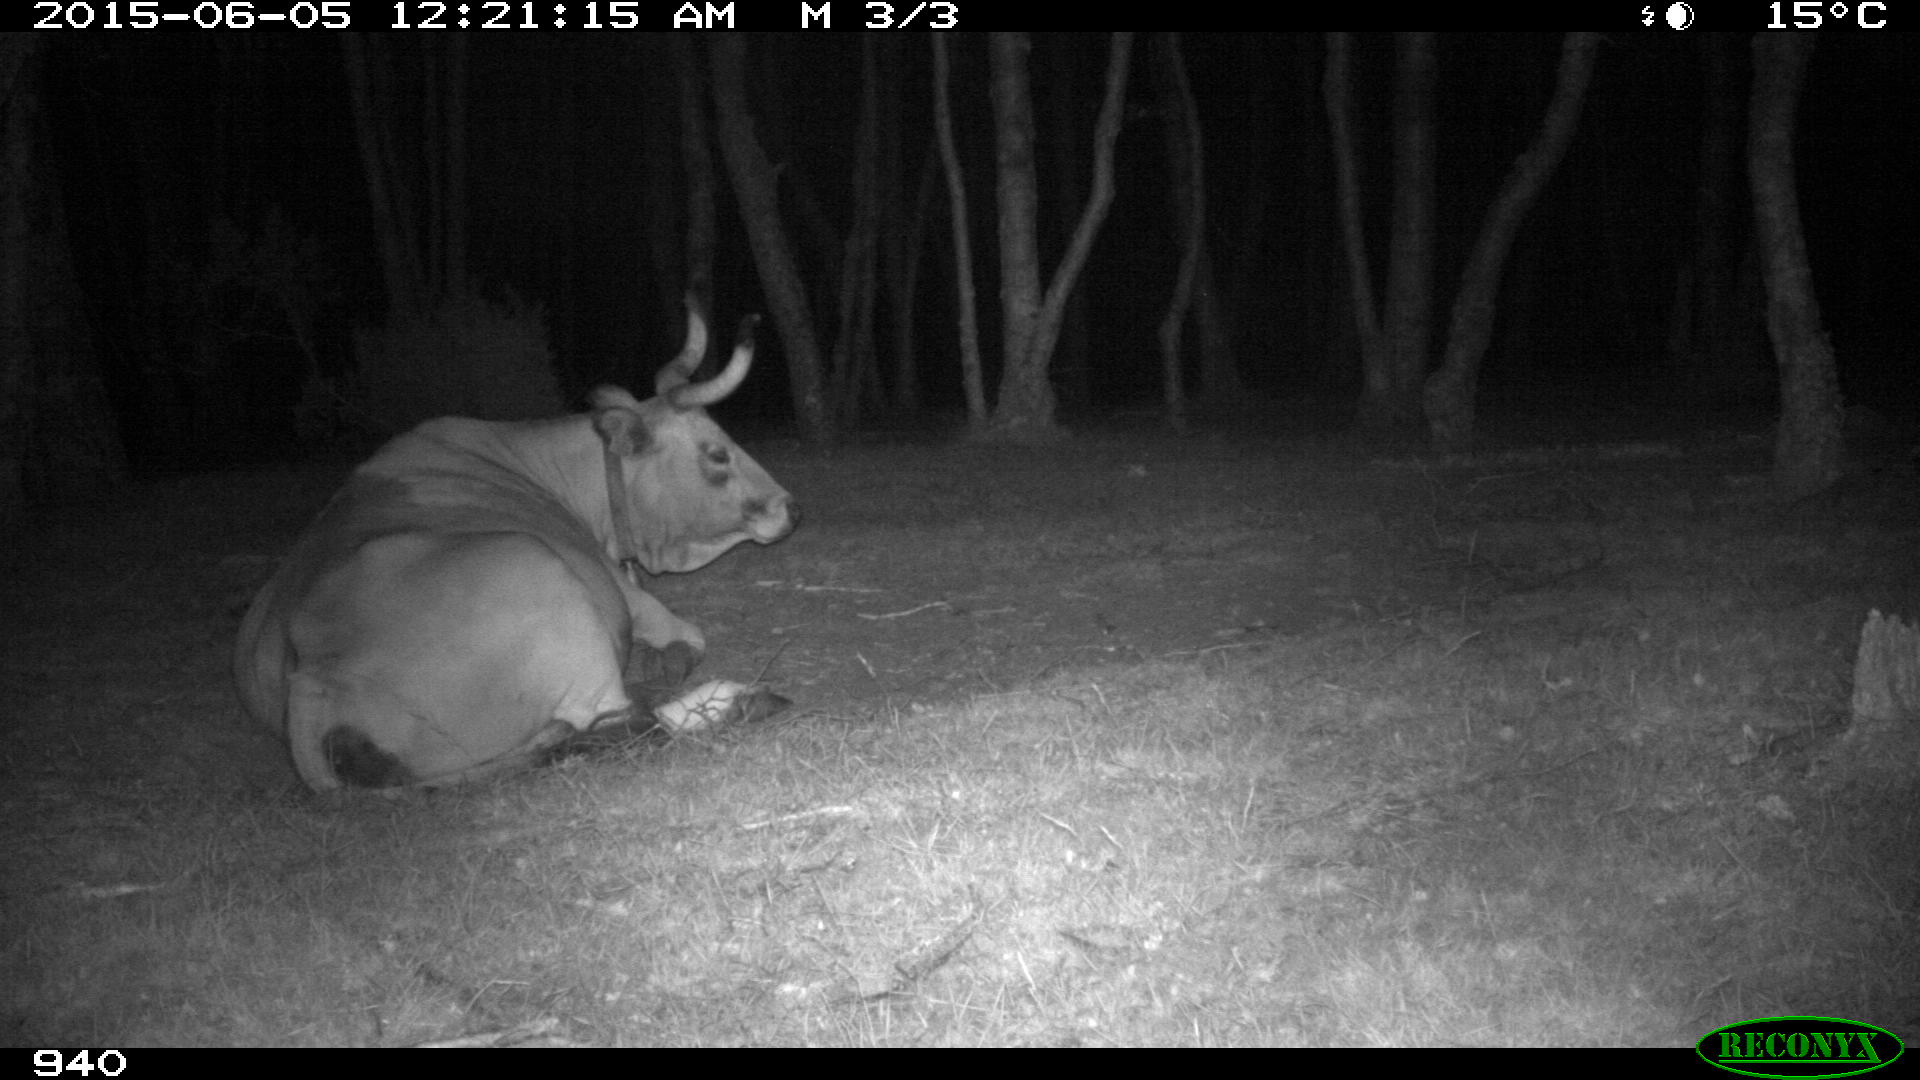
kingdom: Animalia
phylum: Chordata
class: Mammalia
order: Artiodactyla
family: Bovidae
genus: Bos
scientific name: Bos taurus
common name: Domesticated cattle
